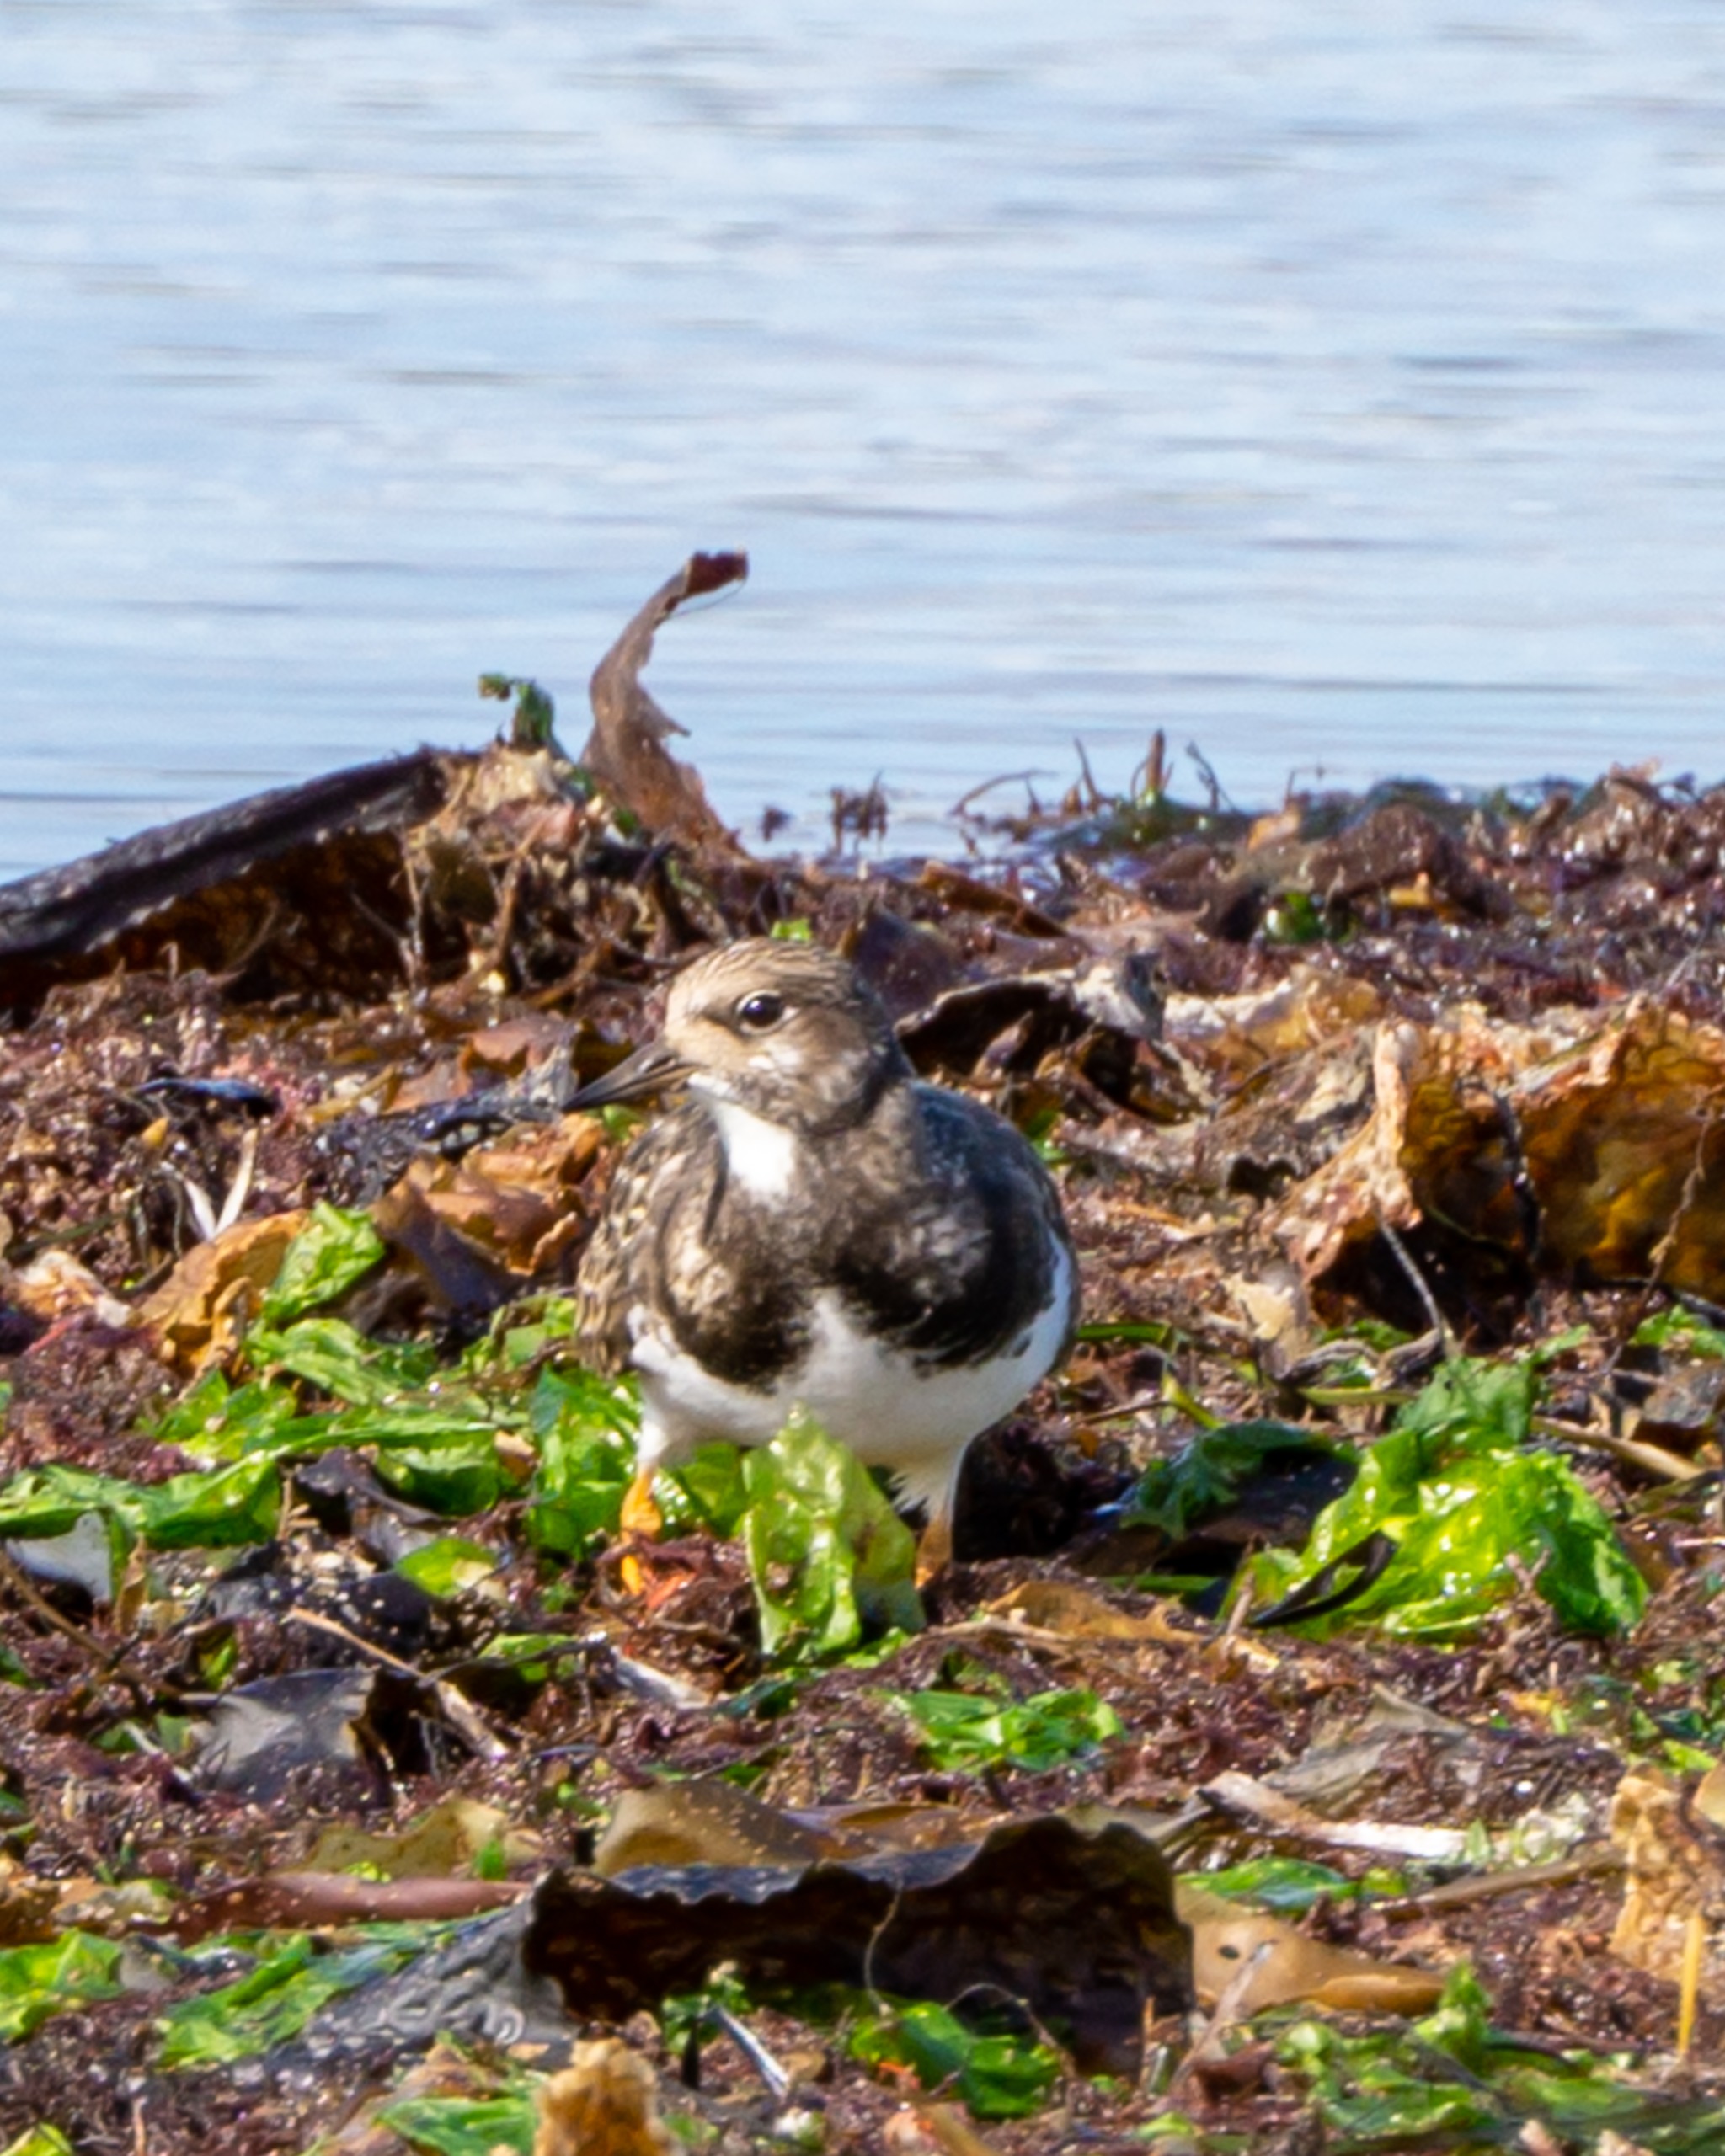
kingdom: Animalia
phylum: Chordata
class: Aves
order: Charadriiformes
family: Scolopacidae
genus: Arenaria
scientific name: Arenaria interpres
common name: Stenvender
